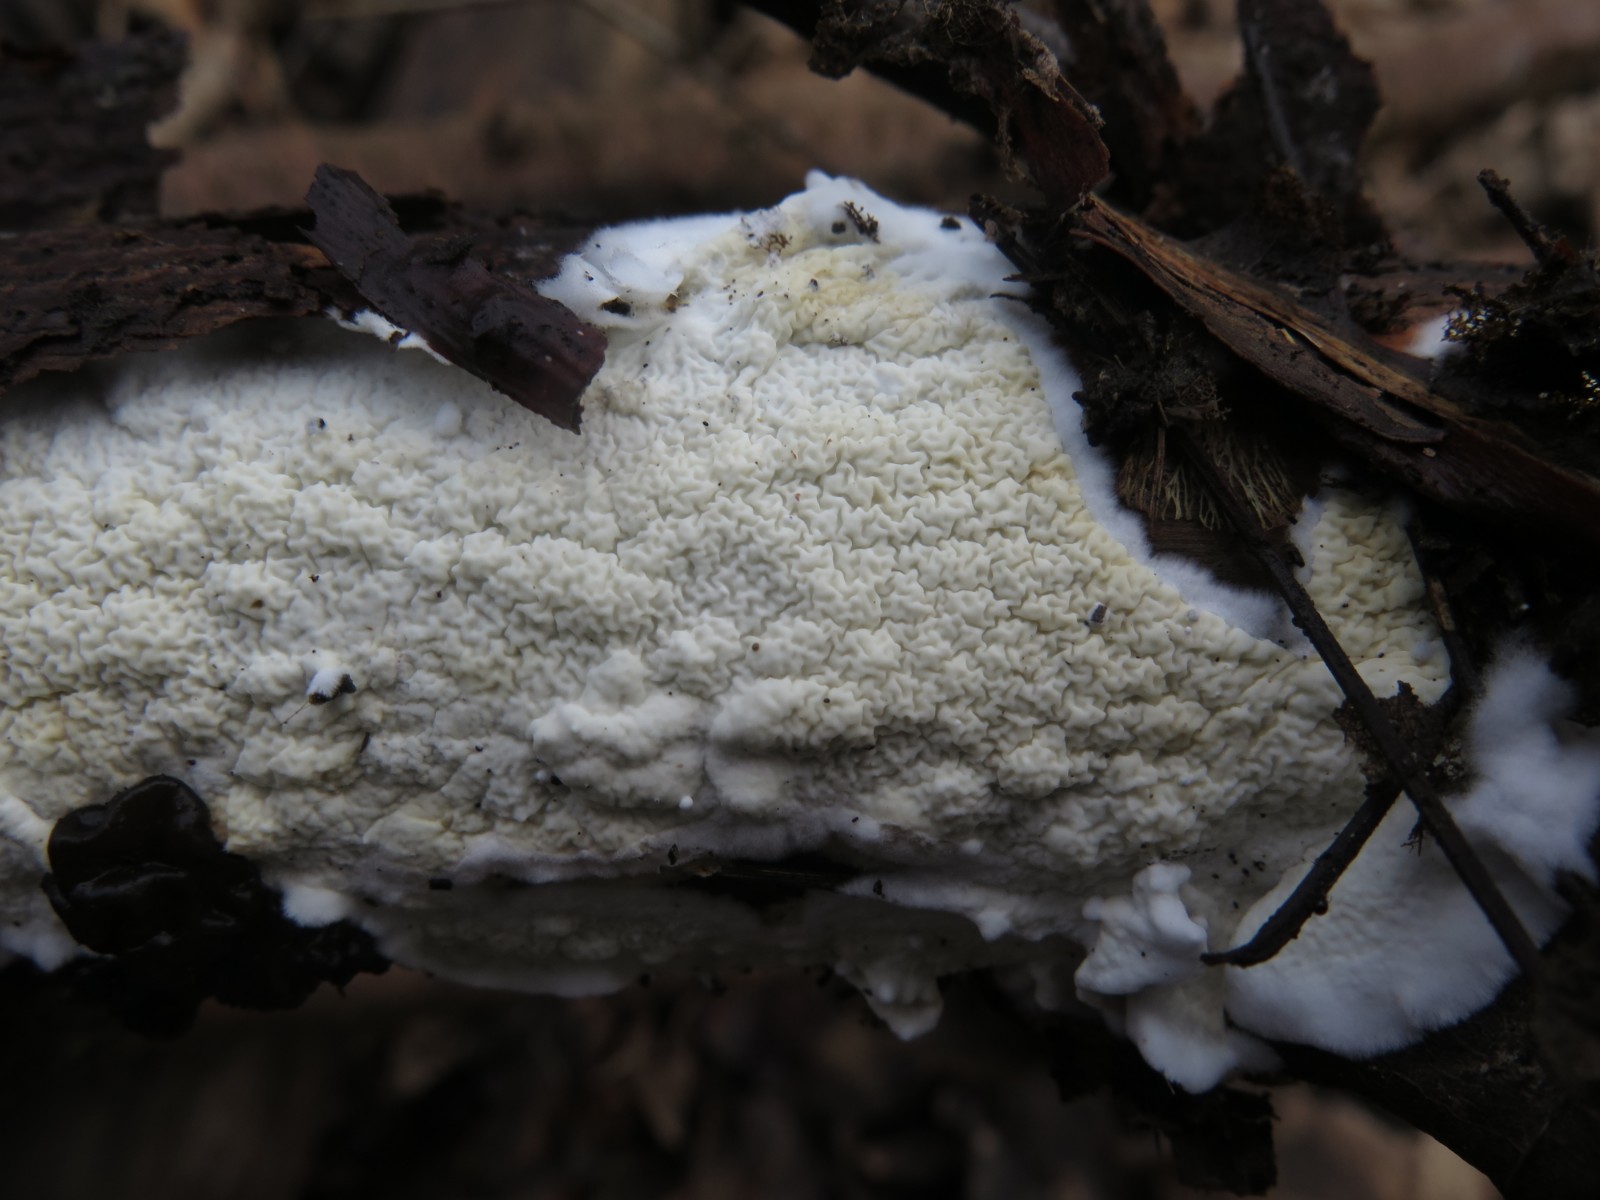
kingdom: Fungi
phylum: Basidiomycota
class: Agaricomycetes
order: Polyporales
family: Irpicaceae
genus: Byssomerulius
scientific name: Byssomerulius corium
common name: læder-åresvamp
